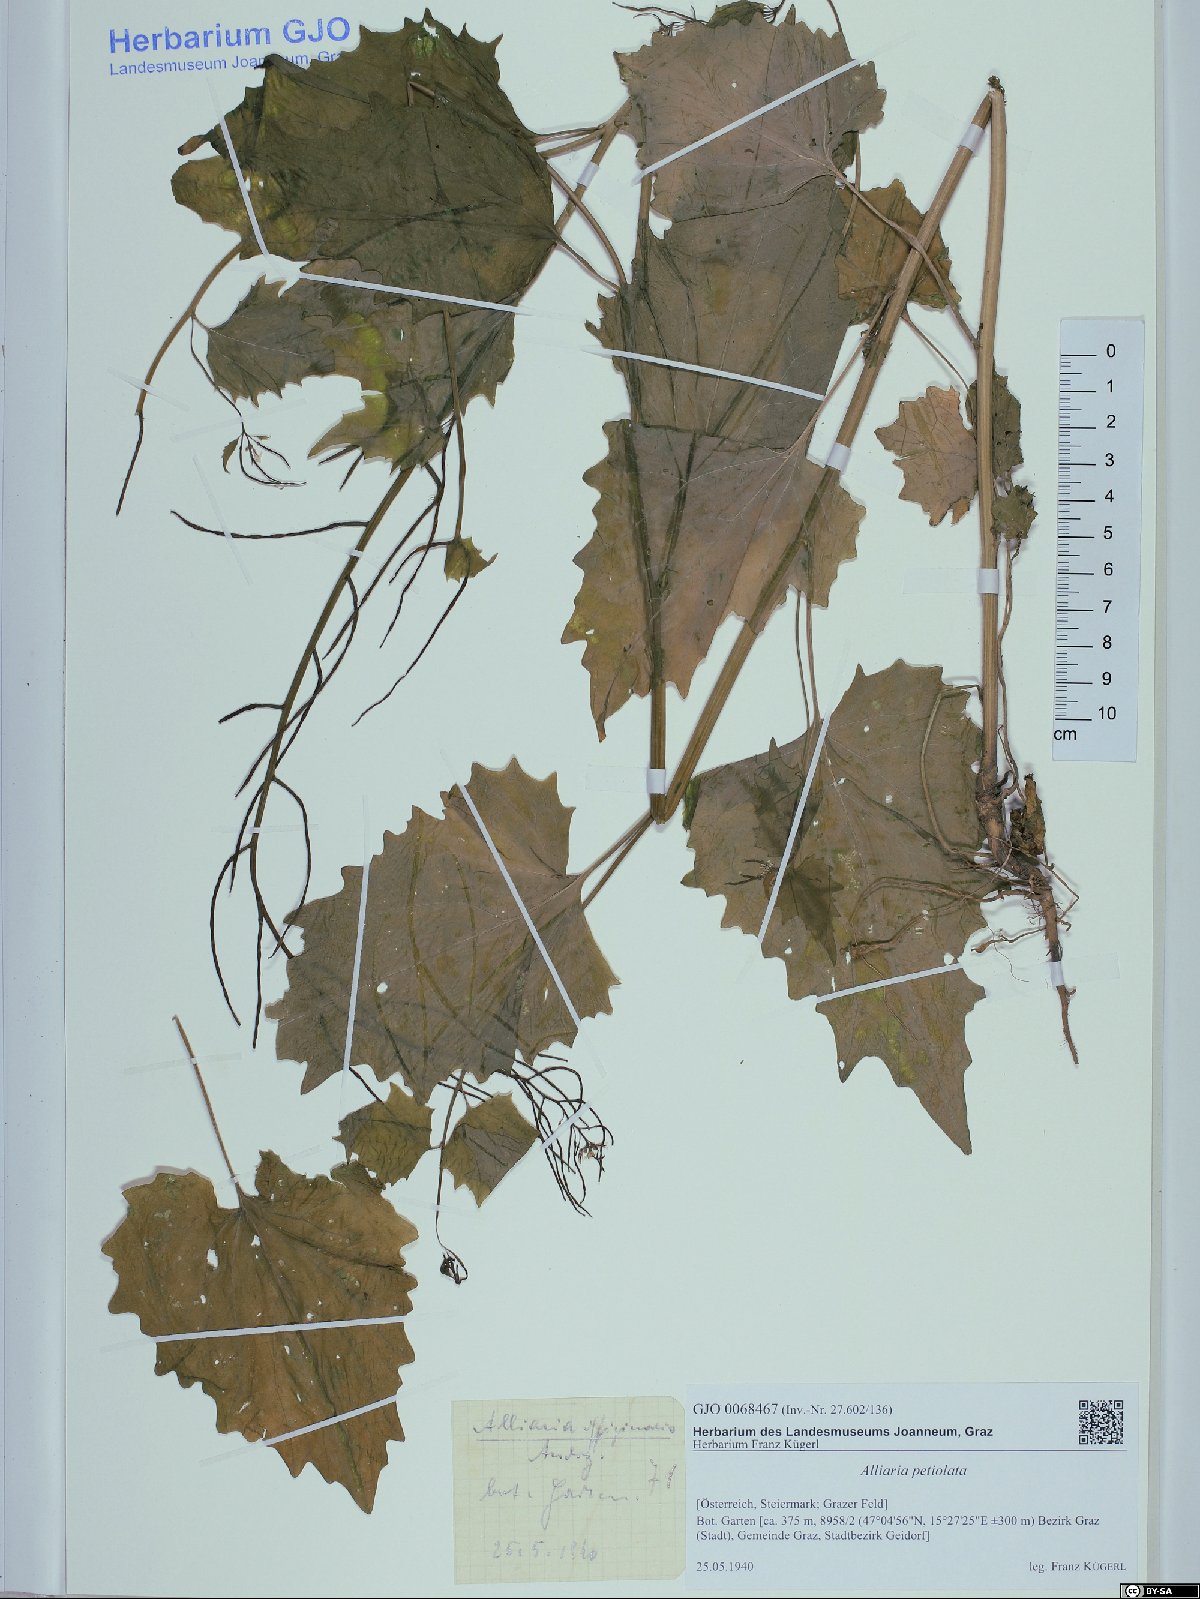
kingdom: Plantae
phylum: Tracheophyta
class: Magnoliopsida
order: Brassicales
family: Brassicaceae
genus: Alliaria
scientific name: Alliaria petiolata
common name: Garlic mustard
